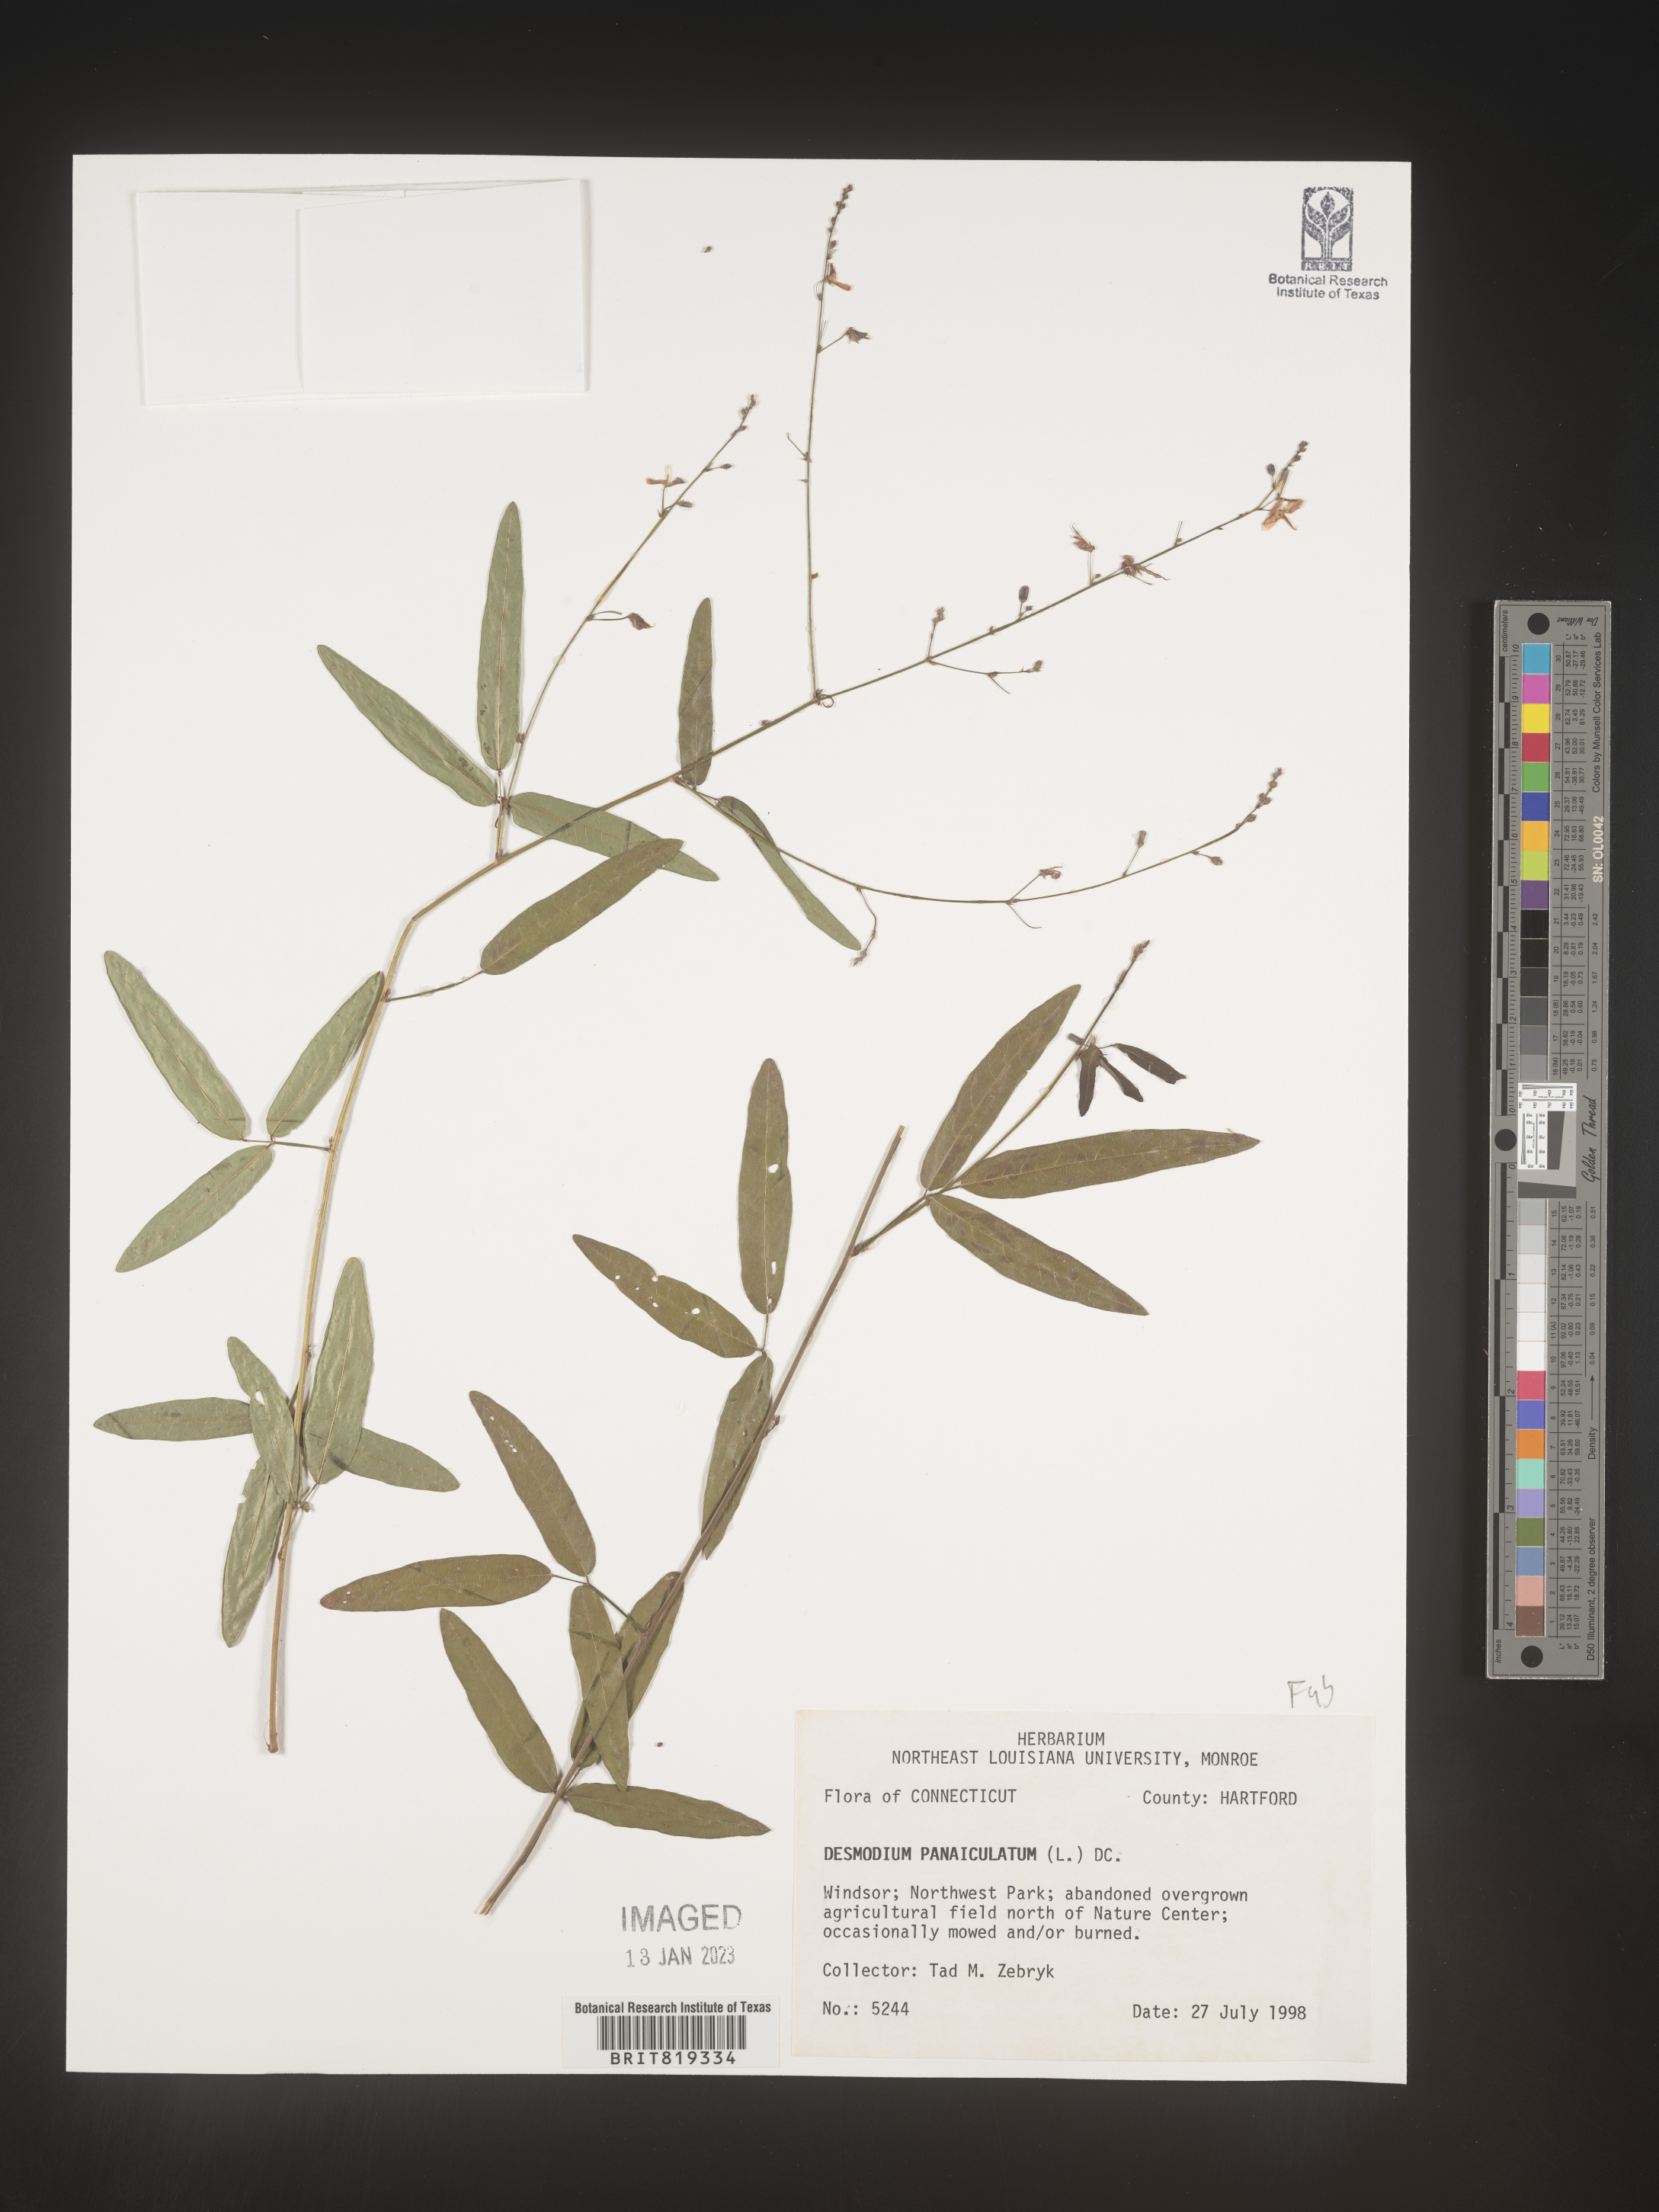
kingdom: Plantae
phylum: Tracheophyta
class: Magnoliopsida
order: Fabales
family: Fabaceae
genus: Desmodium
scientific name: Desmodium paniculatum
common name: Panicled tick-clover
